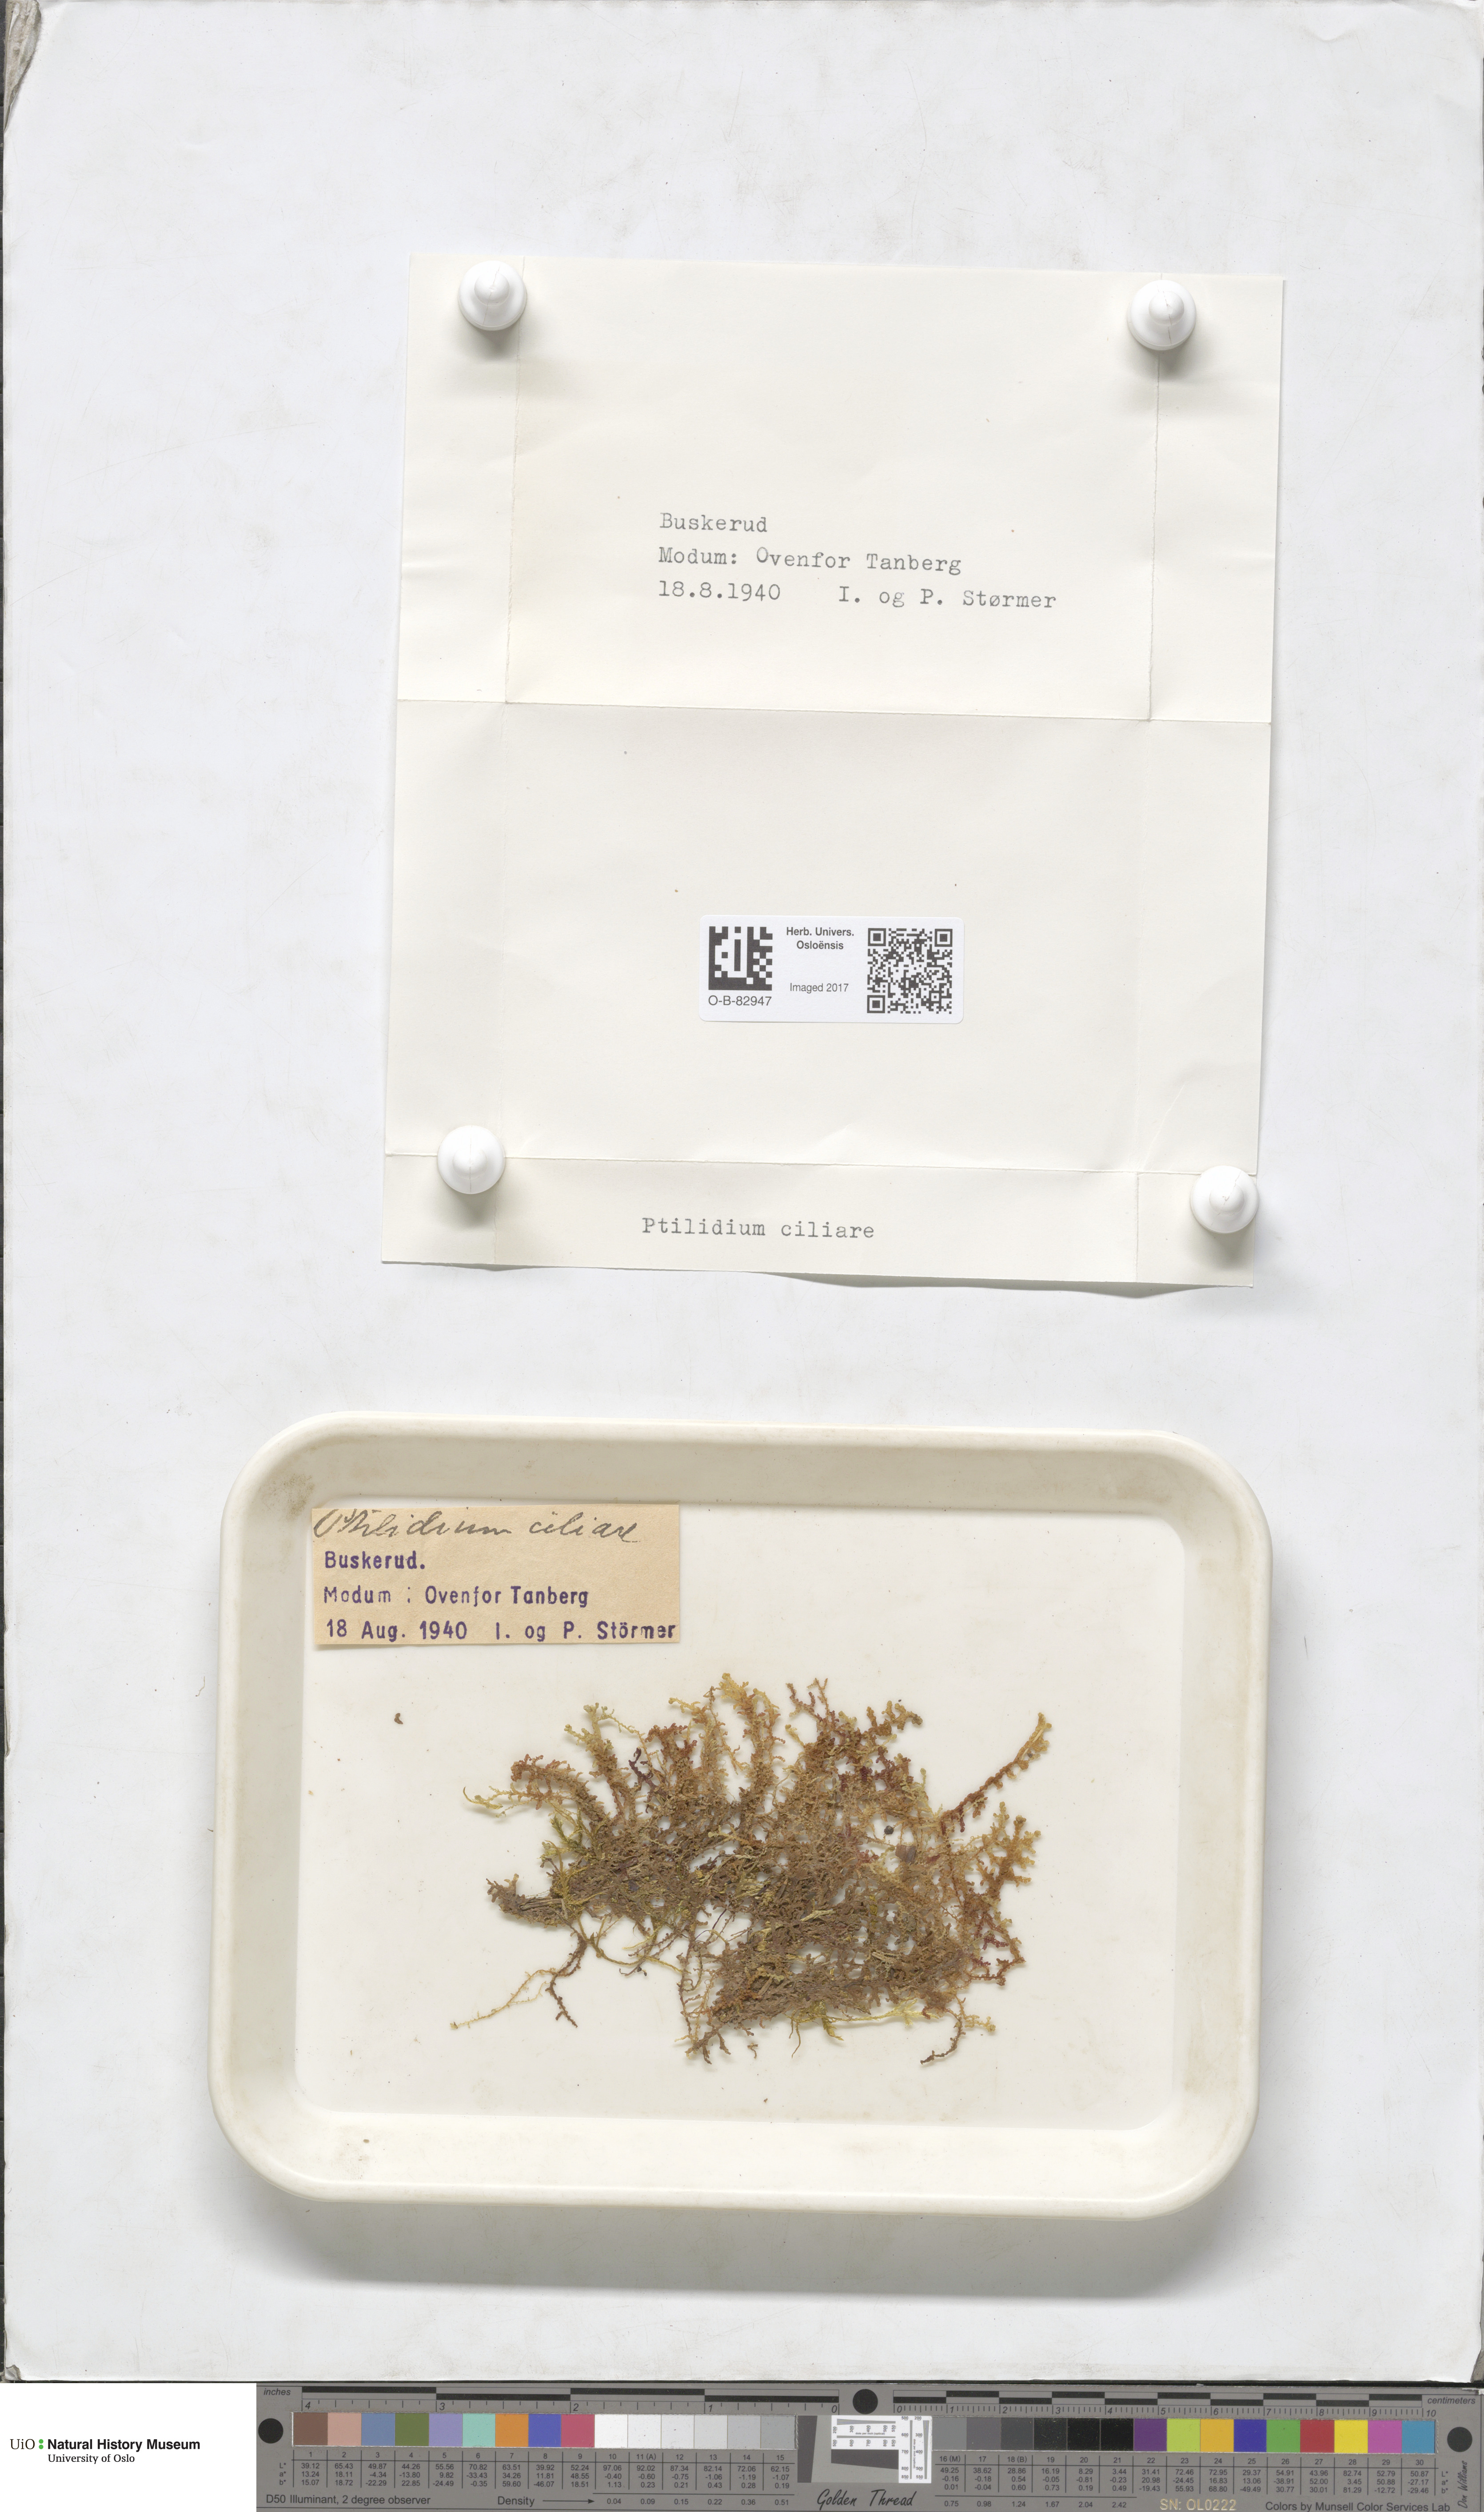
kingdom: Plantae
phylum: Marchantiophyta
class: Jungermanniopsida
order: Ptilidiales
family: Ptilidiaceae
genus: Ptilidium
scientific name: Ptilidium ciliare
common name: Ciliate fringewort
